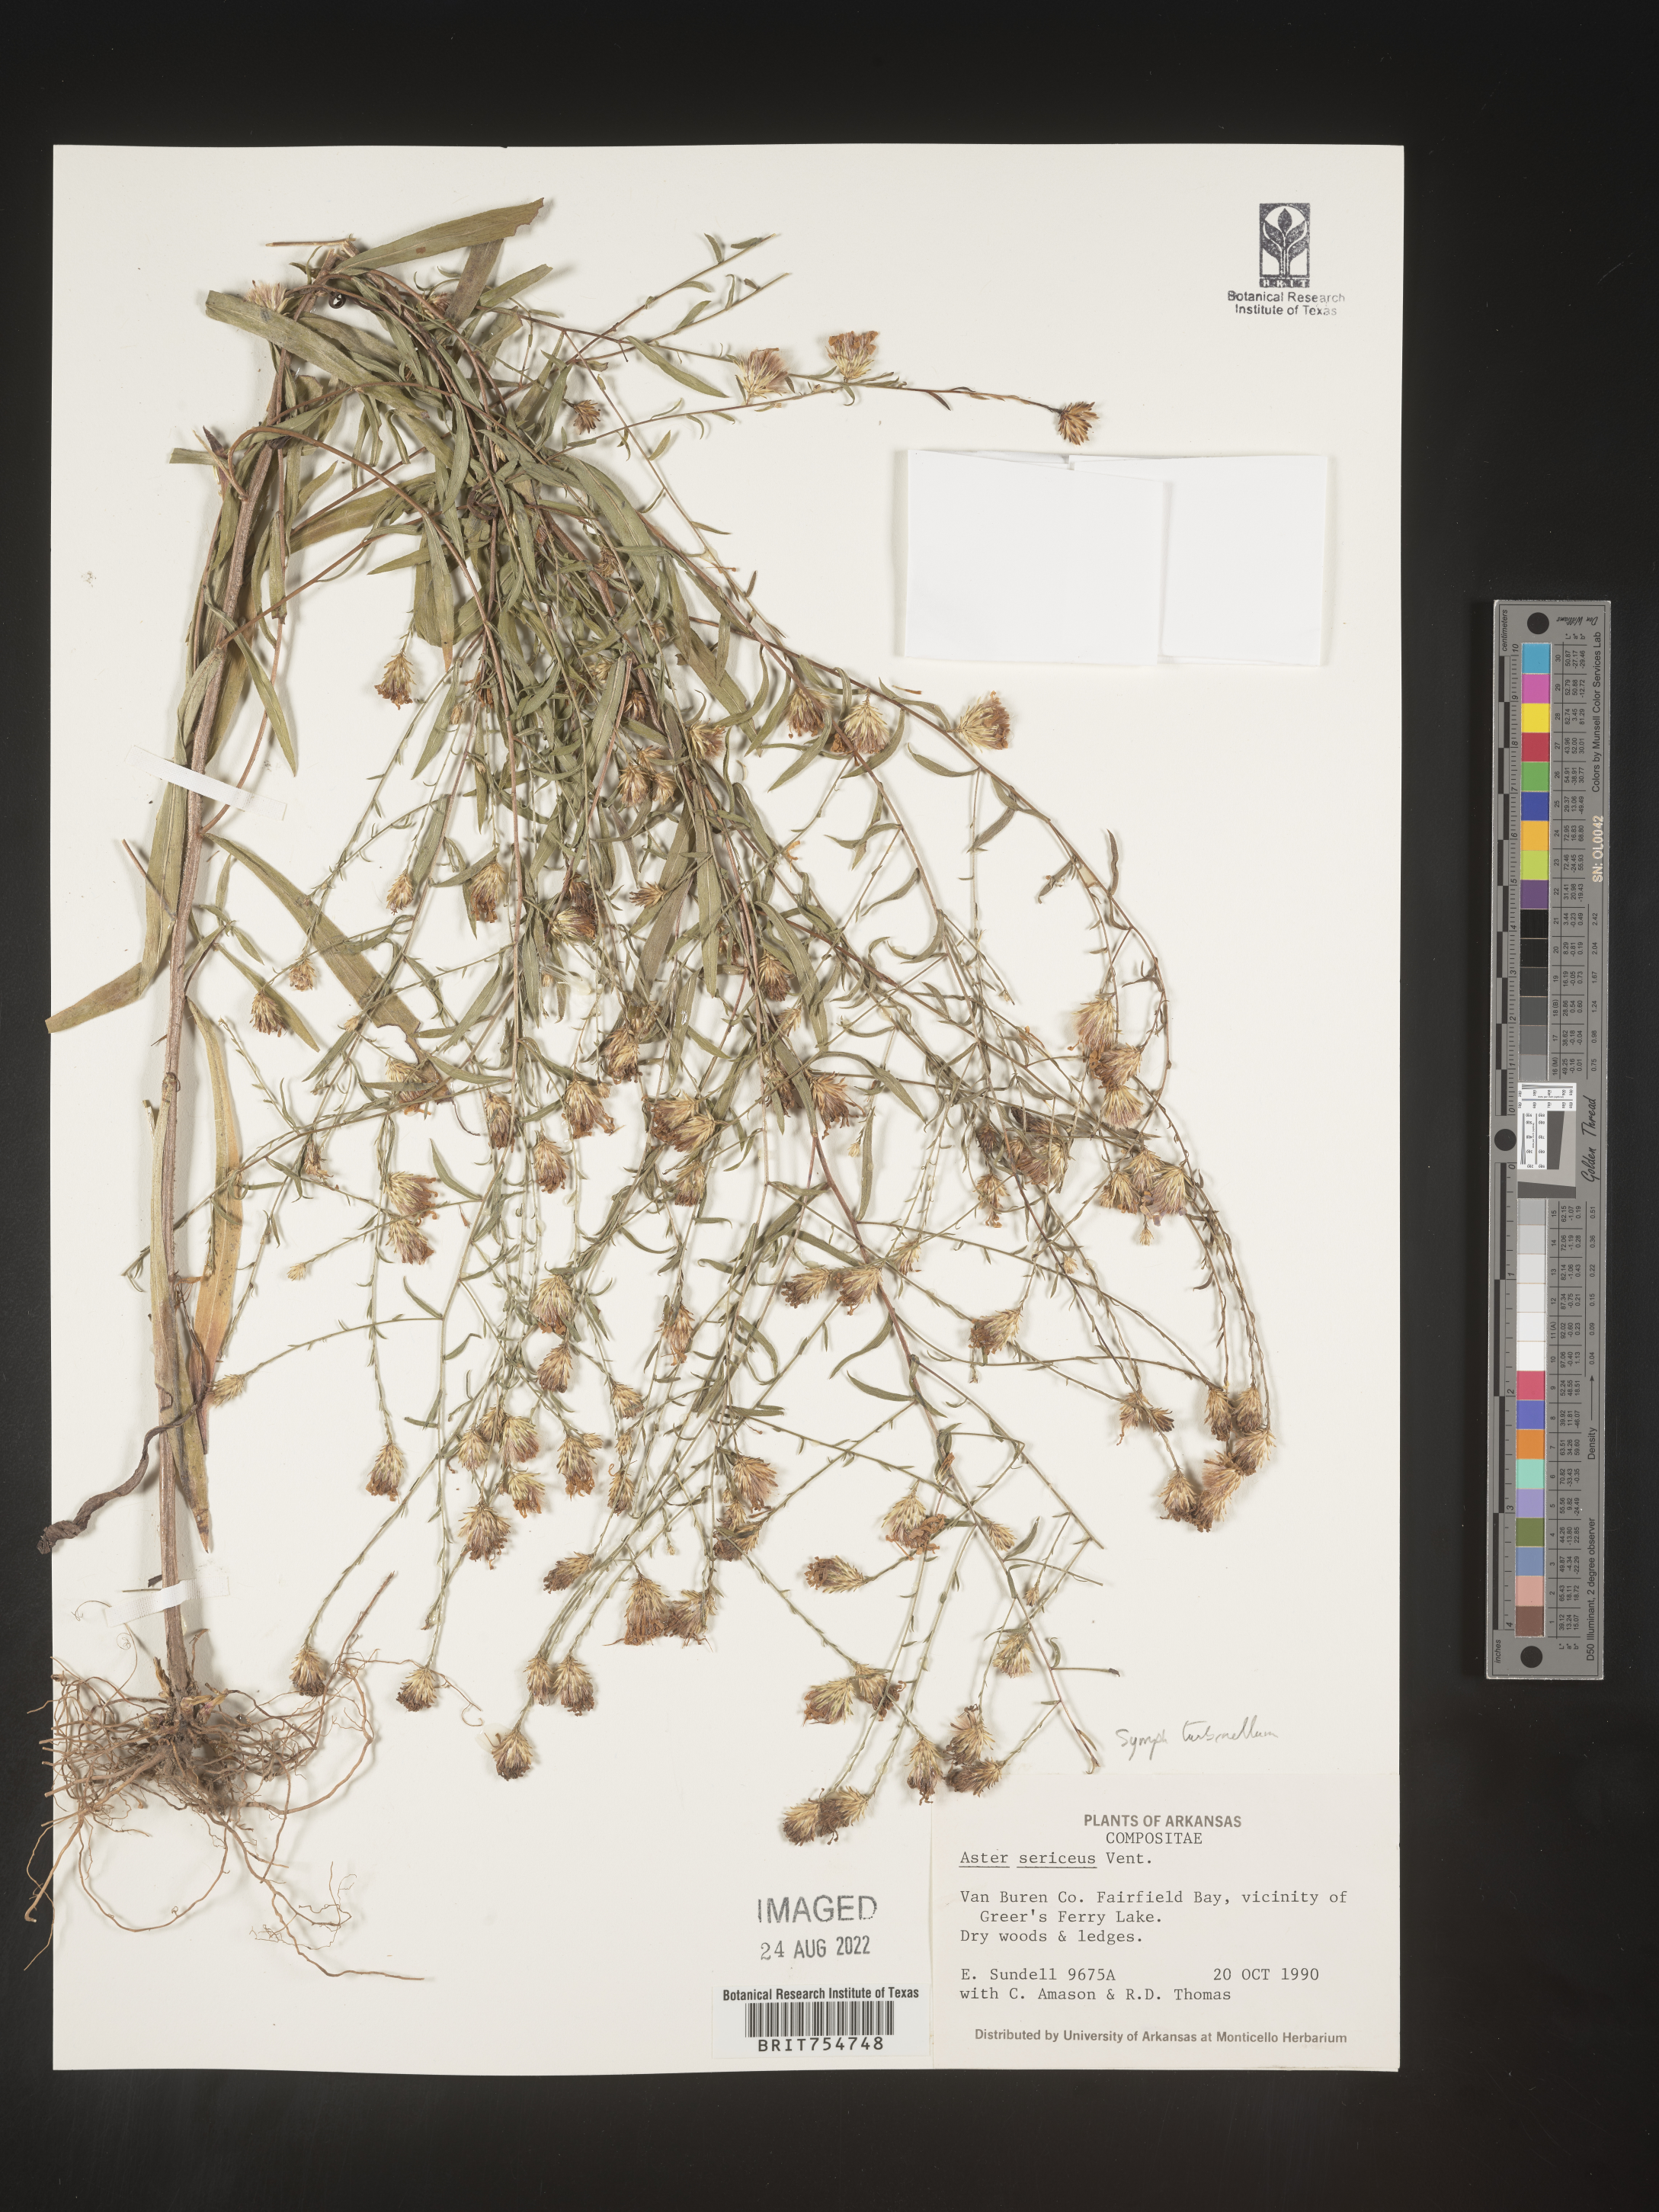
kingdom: Plantae
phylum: Tracheophyta
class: Magnoliopsida
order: Asterales
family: Asteraceae
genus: Symphyotrichum
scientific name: Symphyotrichum turbinellum
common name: Prairie aster
